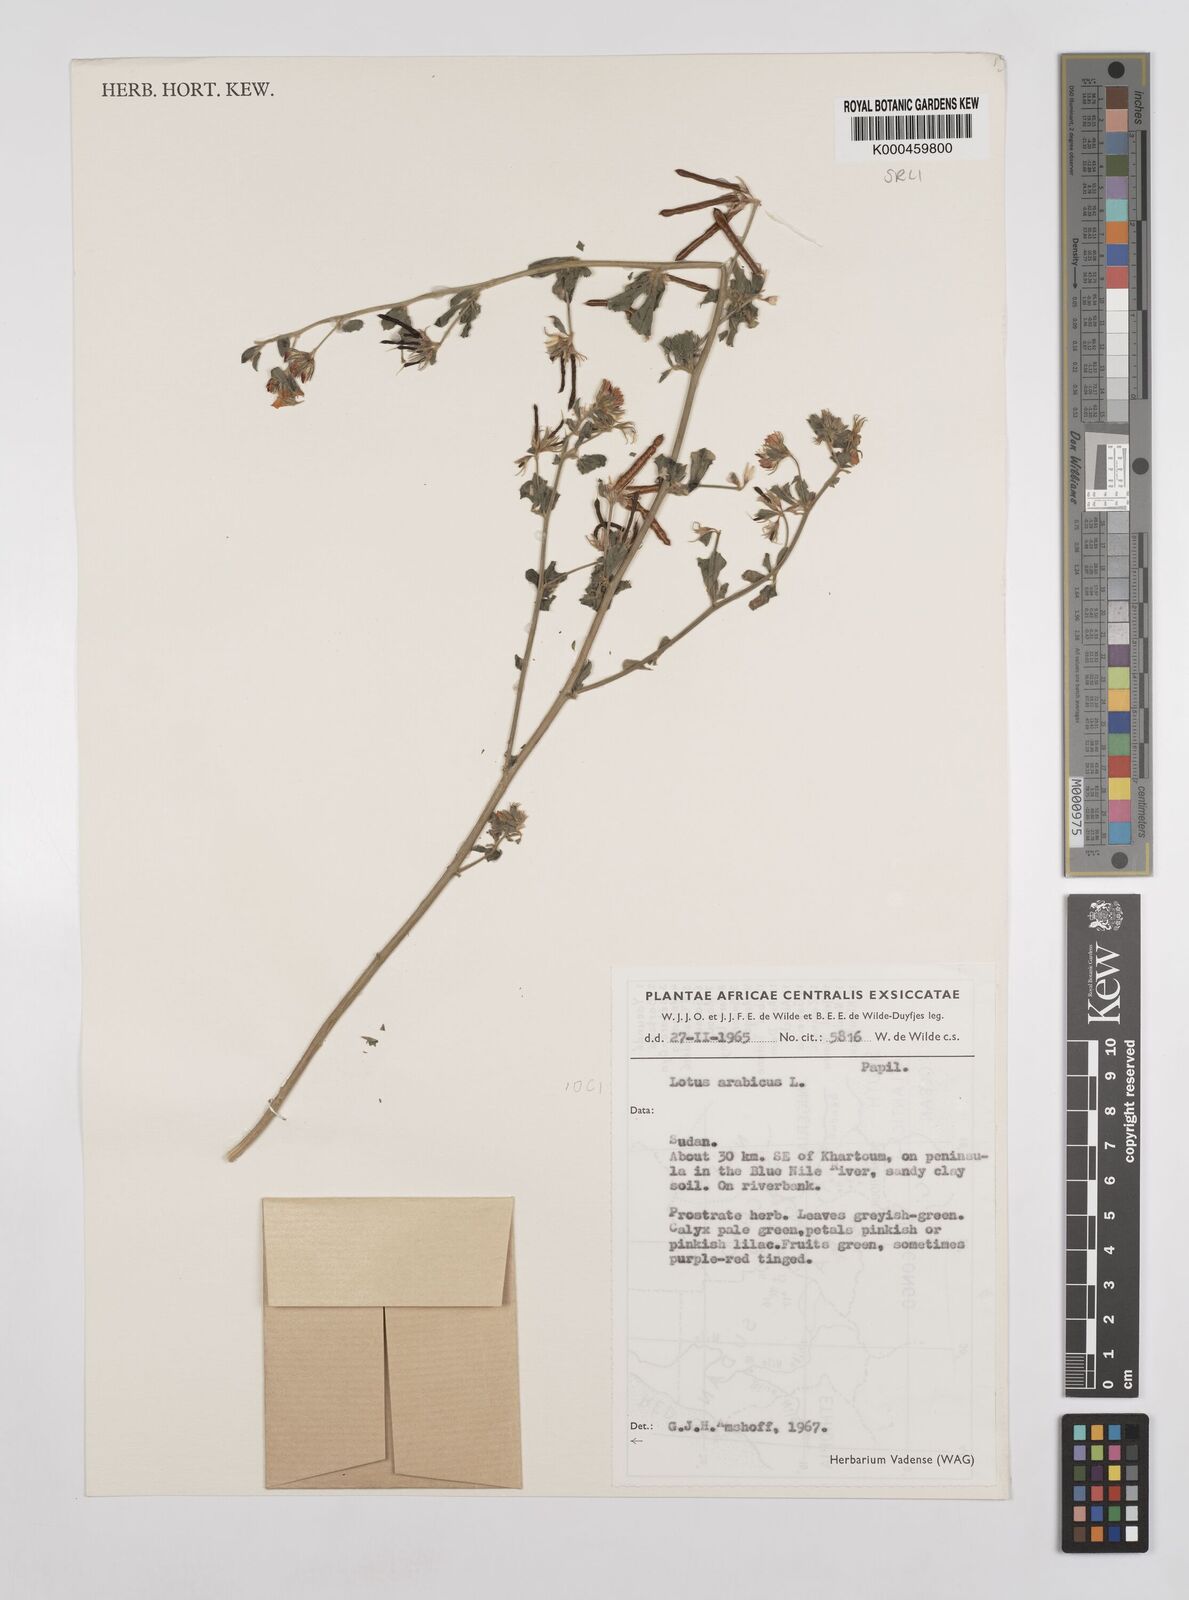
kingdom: Plantae
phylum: Tracheophyta
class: Magnoliopsida
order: Fabales
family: Fabaceae
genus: Lotus
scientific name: Lotus arabicus
